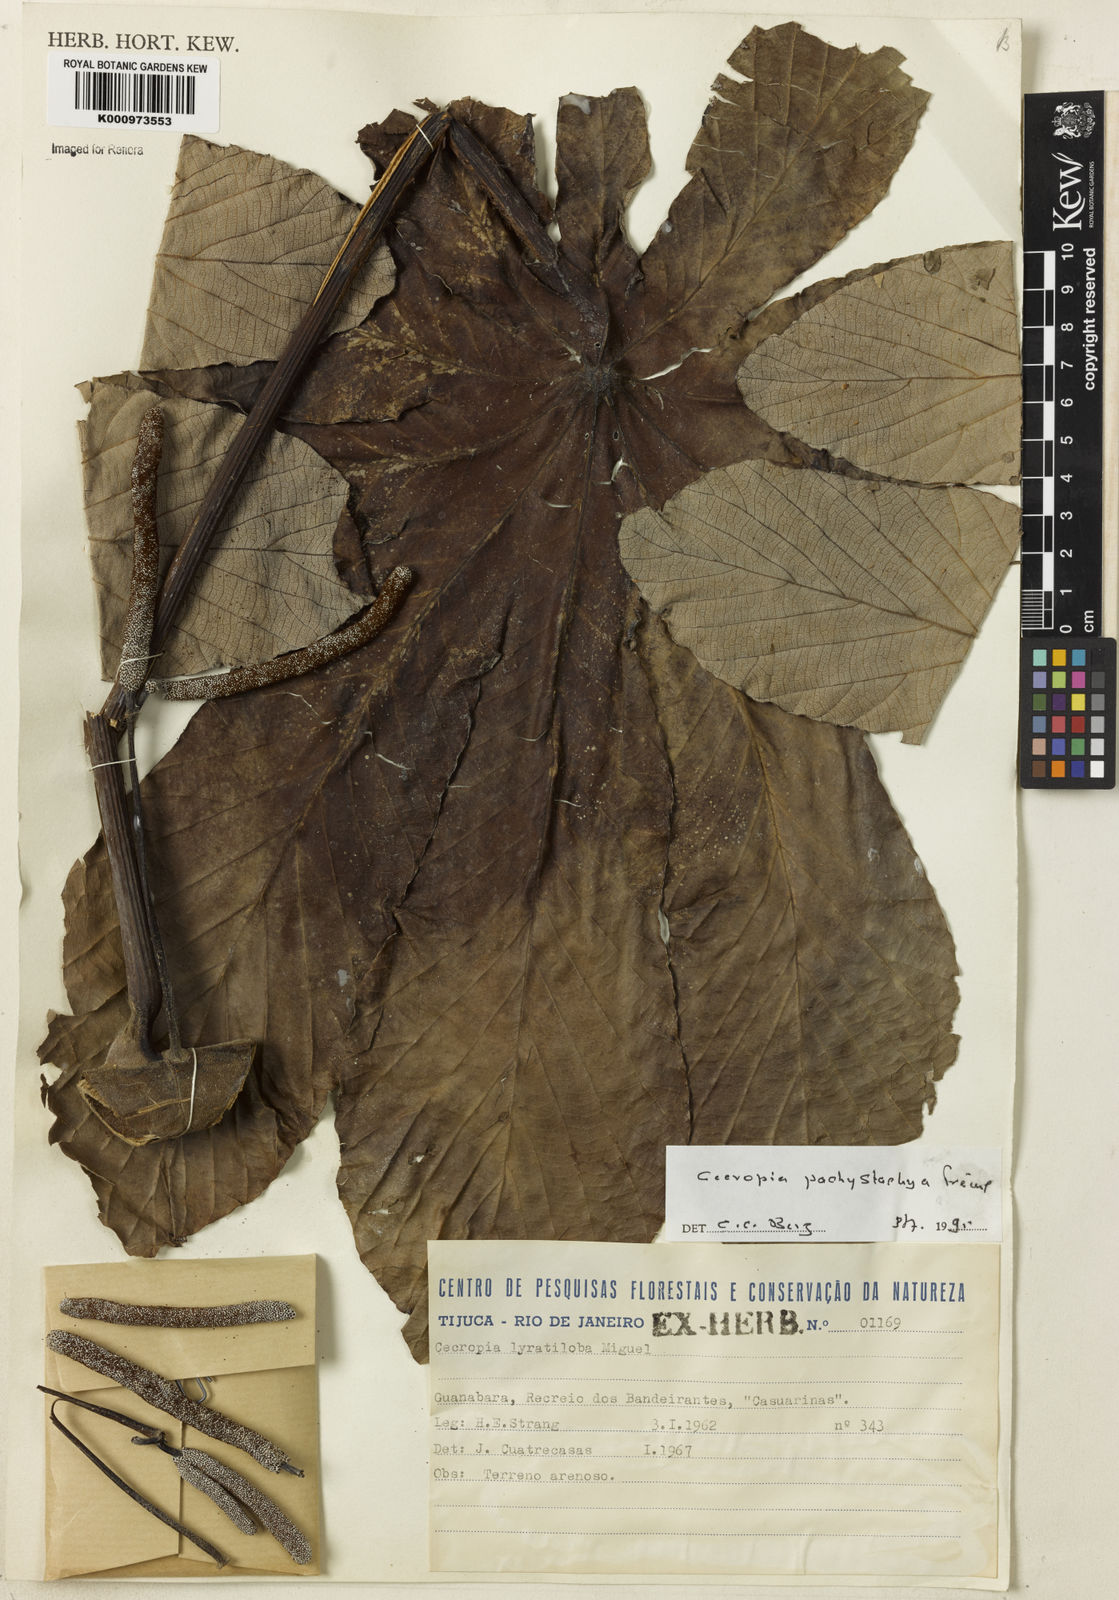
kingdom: Plantae
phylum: Tracheophyta
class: Magnoliopsida
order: Rosales
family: Urticaceae
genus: Cecropia
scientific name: Cecropia
